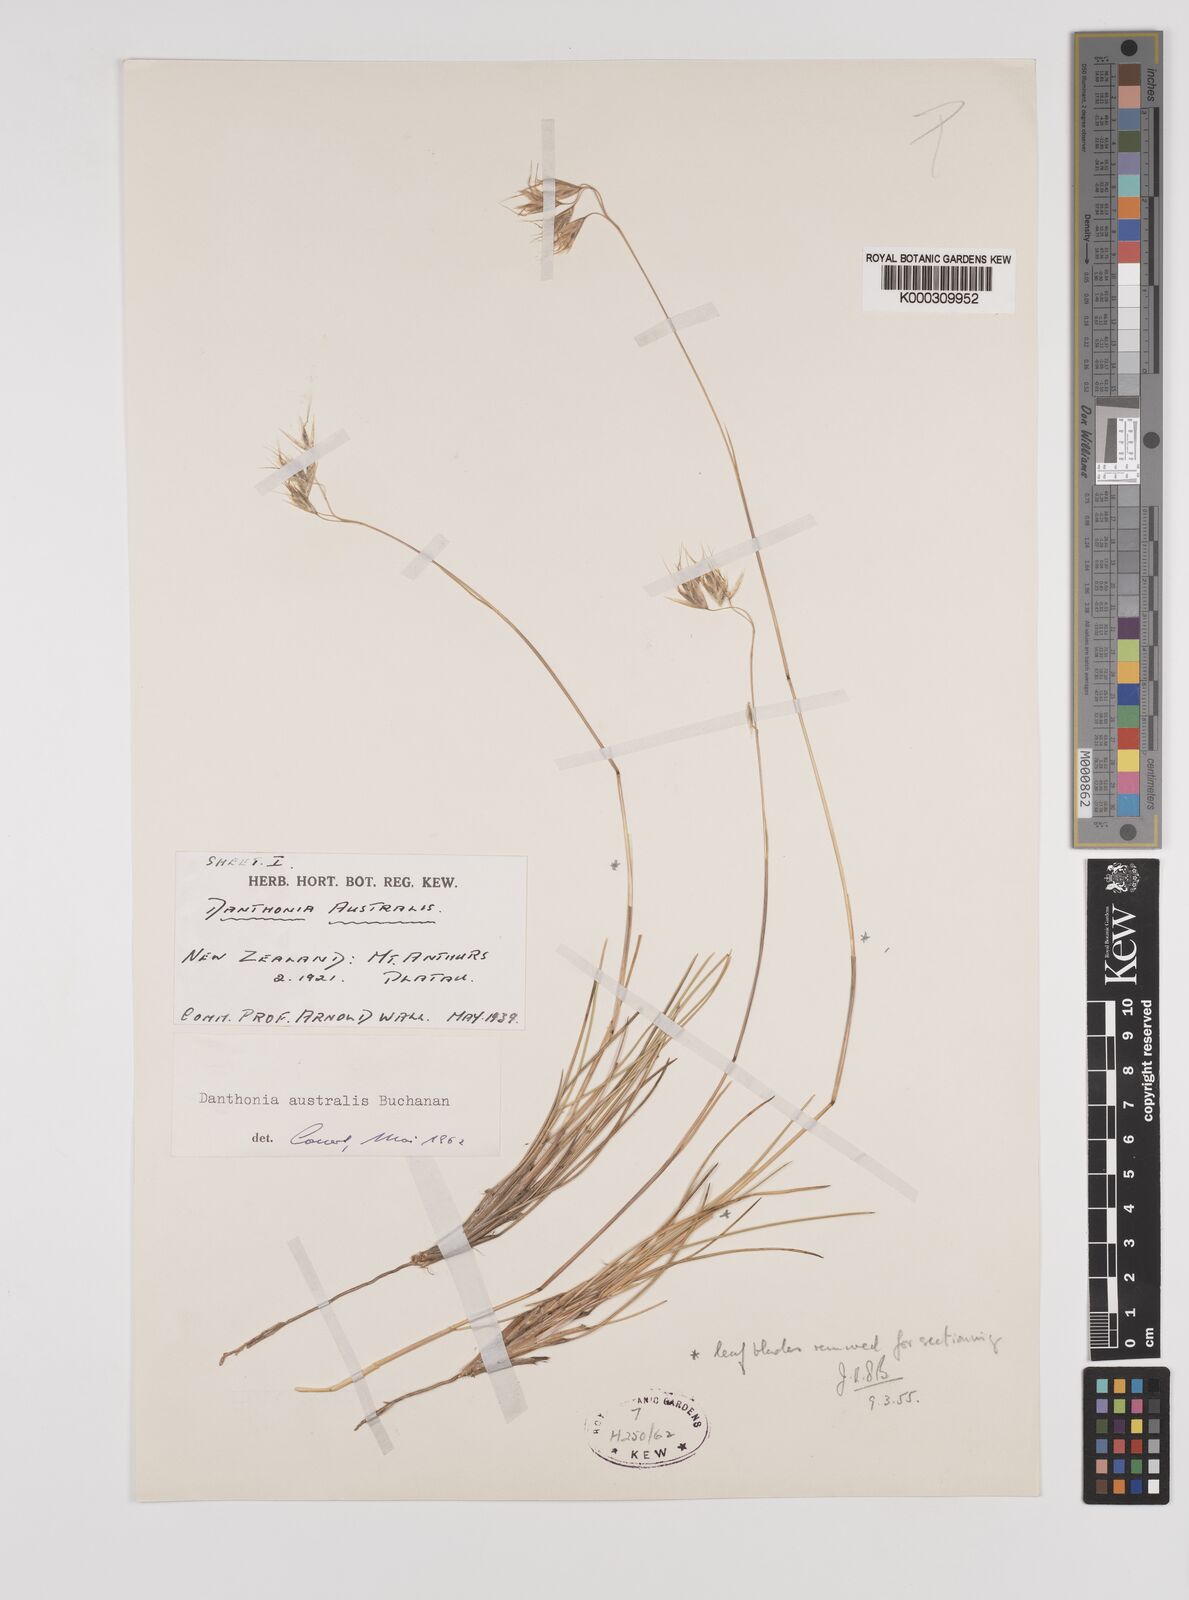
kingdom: Plantae
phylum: Tracheophyta
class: Liliopsida
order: Poales
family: Poaceae
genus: Chionochloa
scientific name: Chionochloa australis
